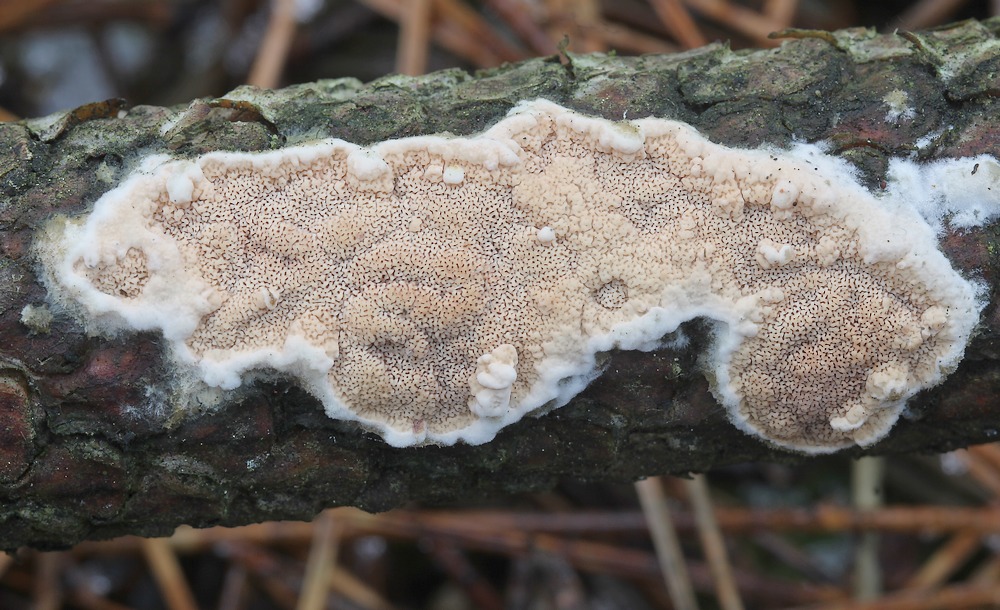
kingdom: Fungi
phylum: Basidiomycota
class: Agaricomycetes
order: Polyporales
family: Irpicaceae
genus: Meruliopsis
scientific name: Meruliopsis taxicola
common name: purpurbrun foldporesvamp
